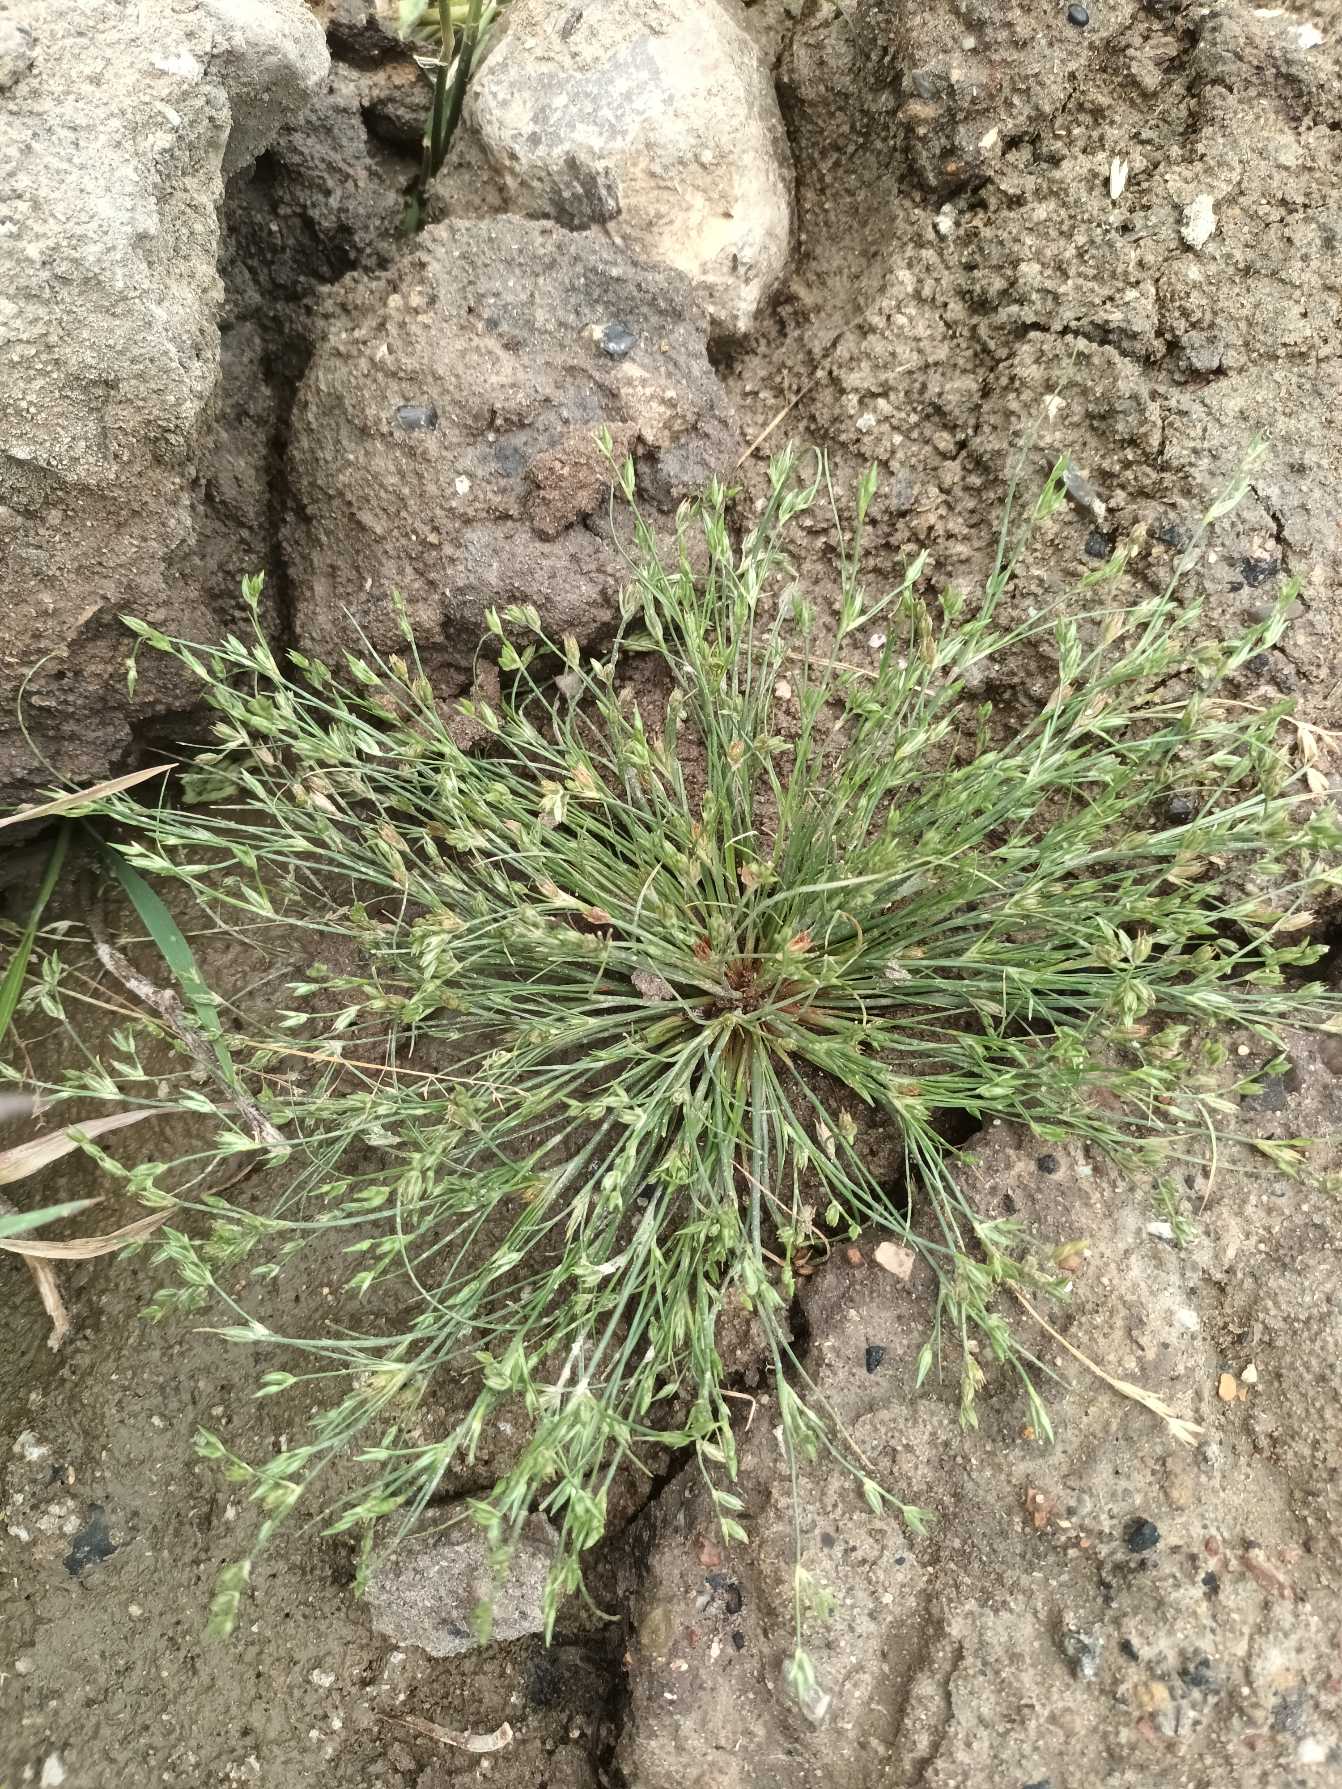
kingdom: Plantae
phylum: Tracheophyta
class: Liliopsida
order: Poales
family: Juncaceae
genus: Juncus
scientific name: Juncus bufonius
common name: Tudse-siv
